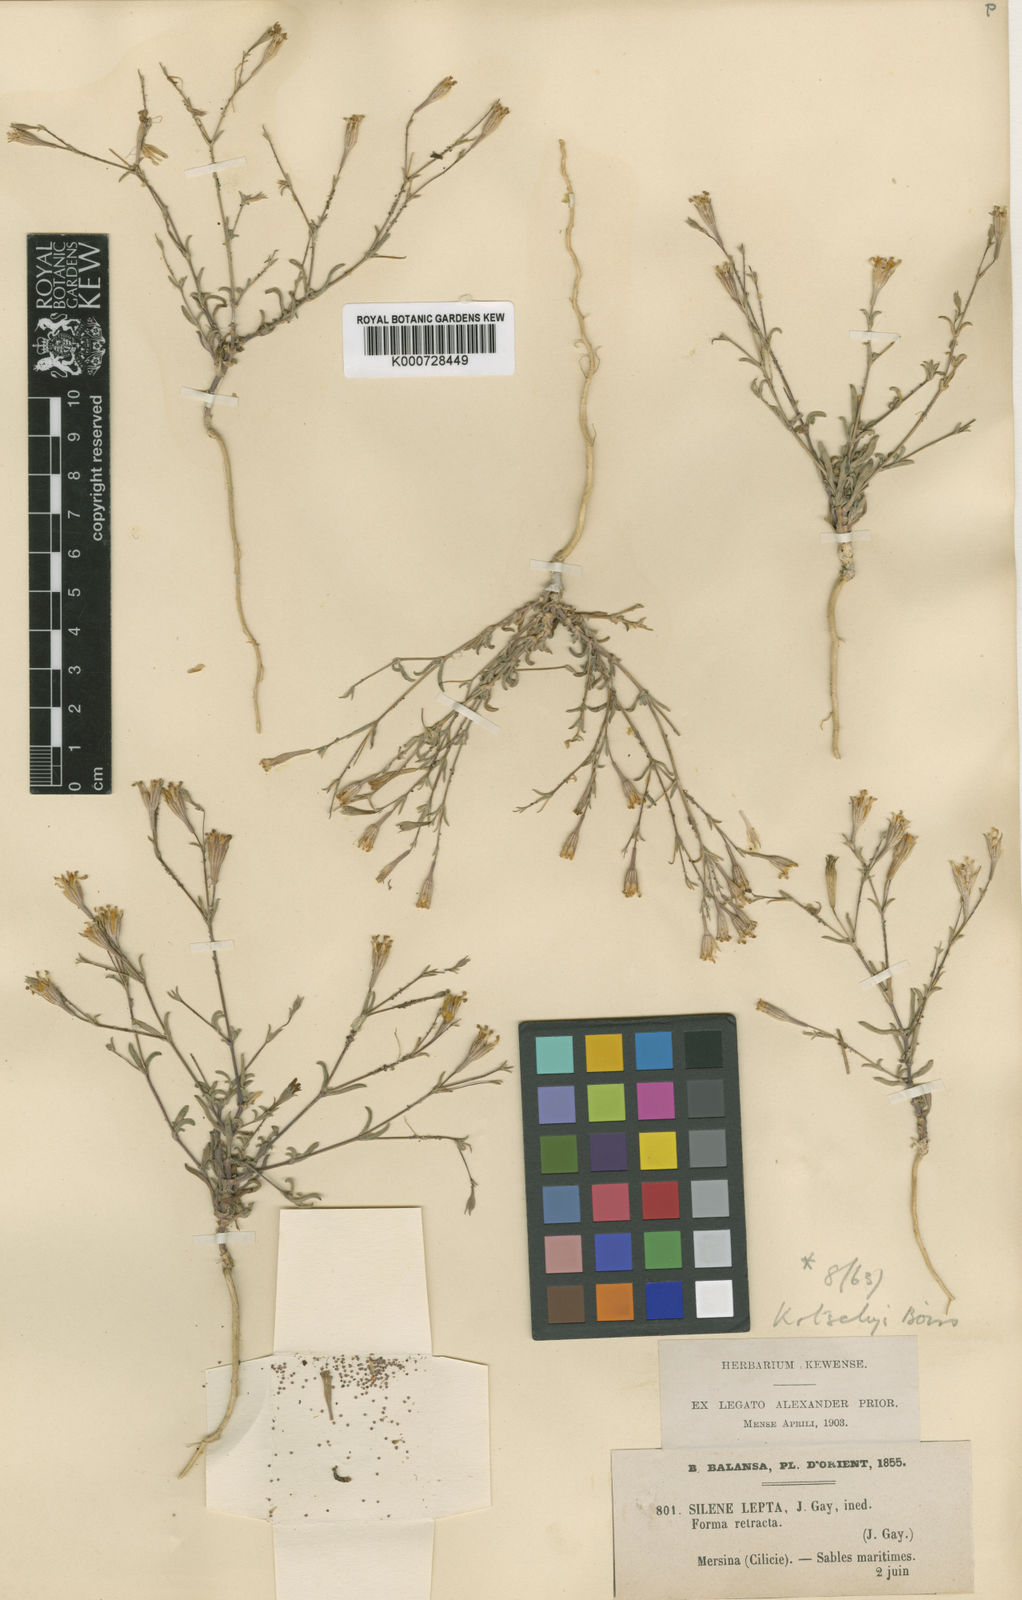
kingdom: Plantae
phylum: Tracheophyta
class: Magnoliopsida
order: Caryophyllales
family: Caryophyllaceae
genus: Silene
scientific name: Silene microsperma
